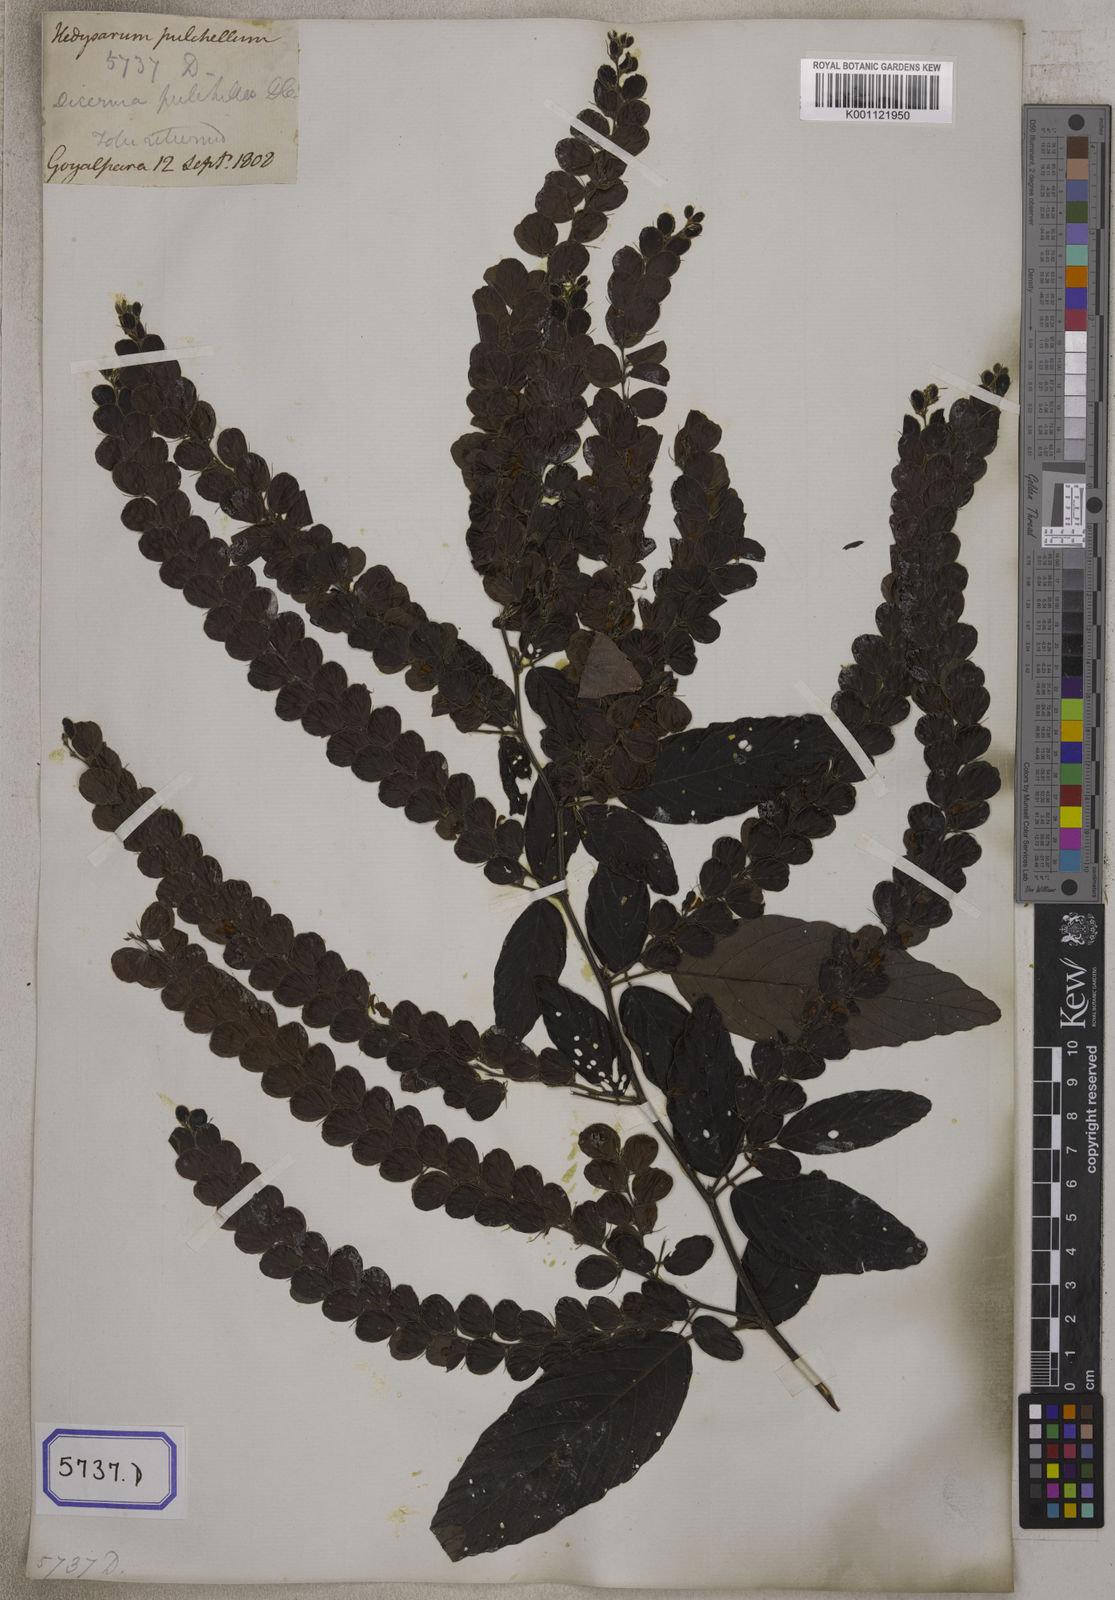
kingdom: Plantae
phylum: Tracheophyta
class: Magnoliopsida
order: Fabales
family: Fabaceae
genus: Phyllodium
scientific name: Phyllodium pulchellum
